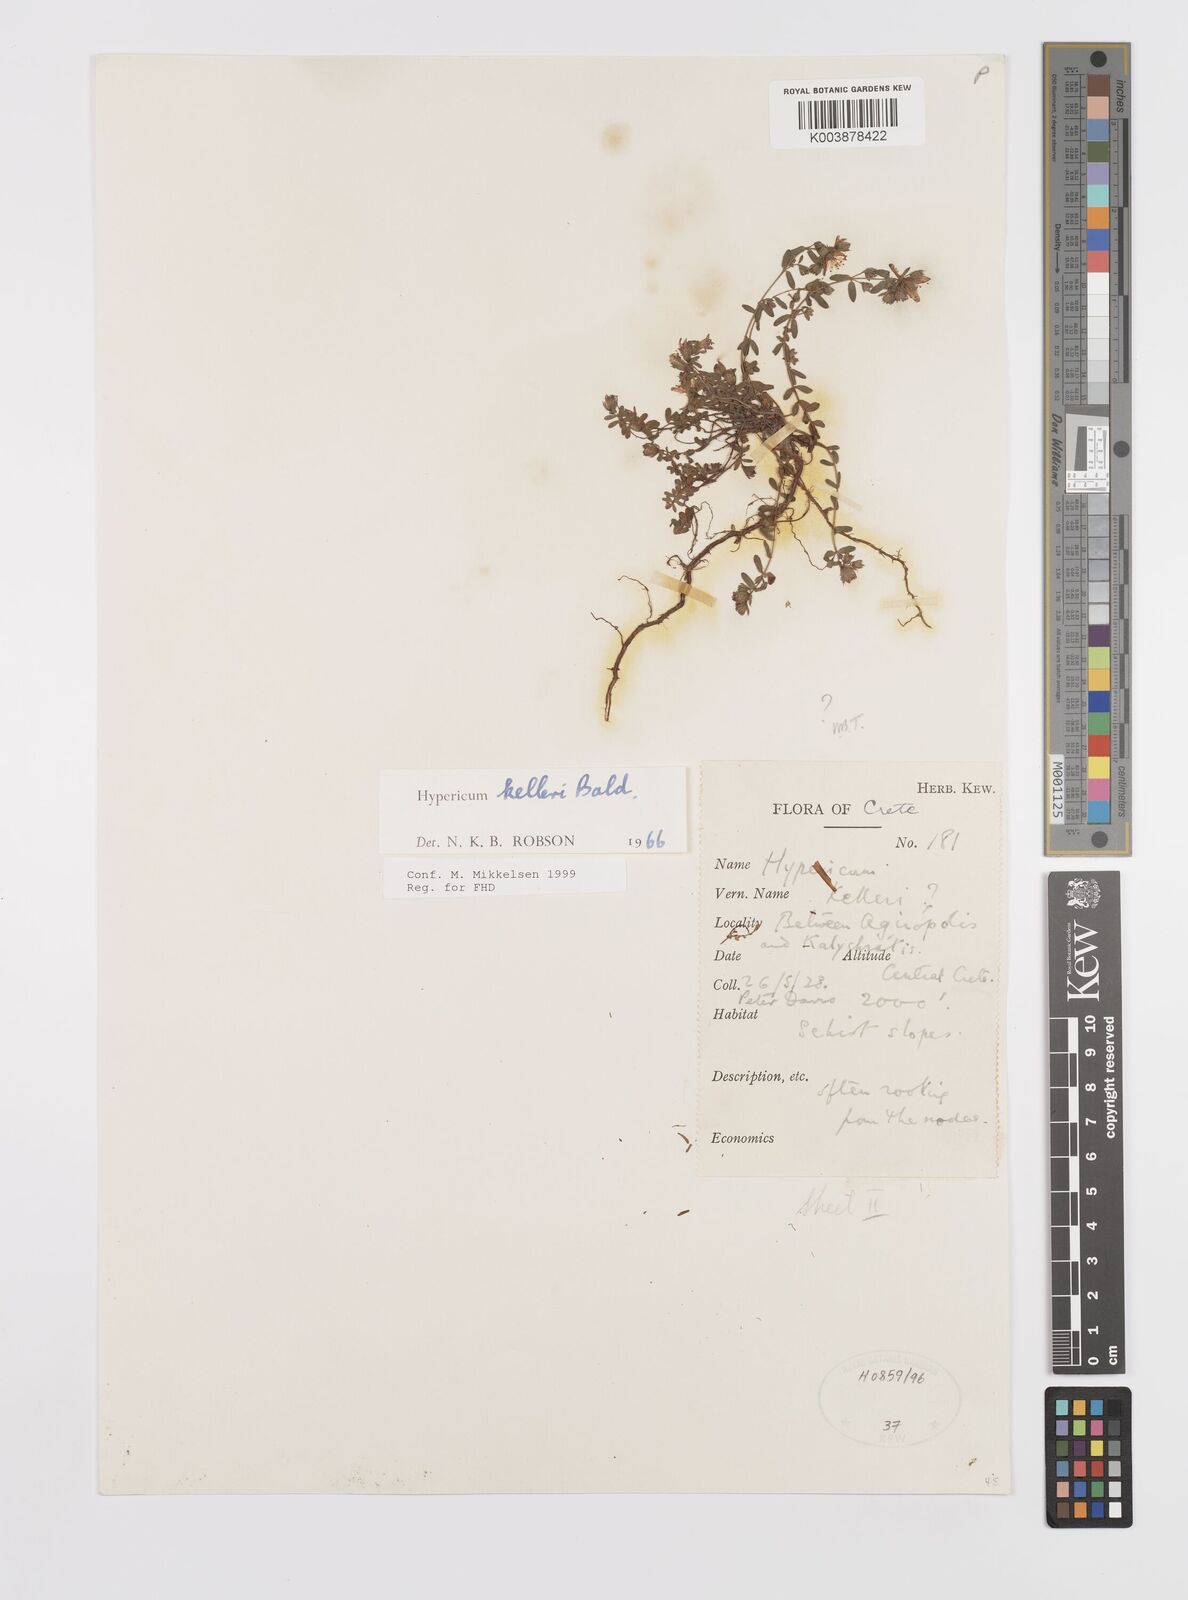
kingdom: Plantae
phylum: Tracheophyta
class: Magnoliopsida
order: Malpighiales
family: Hypericaceae
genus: Hypericum
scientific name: Hypericum kelleri
